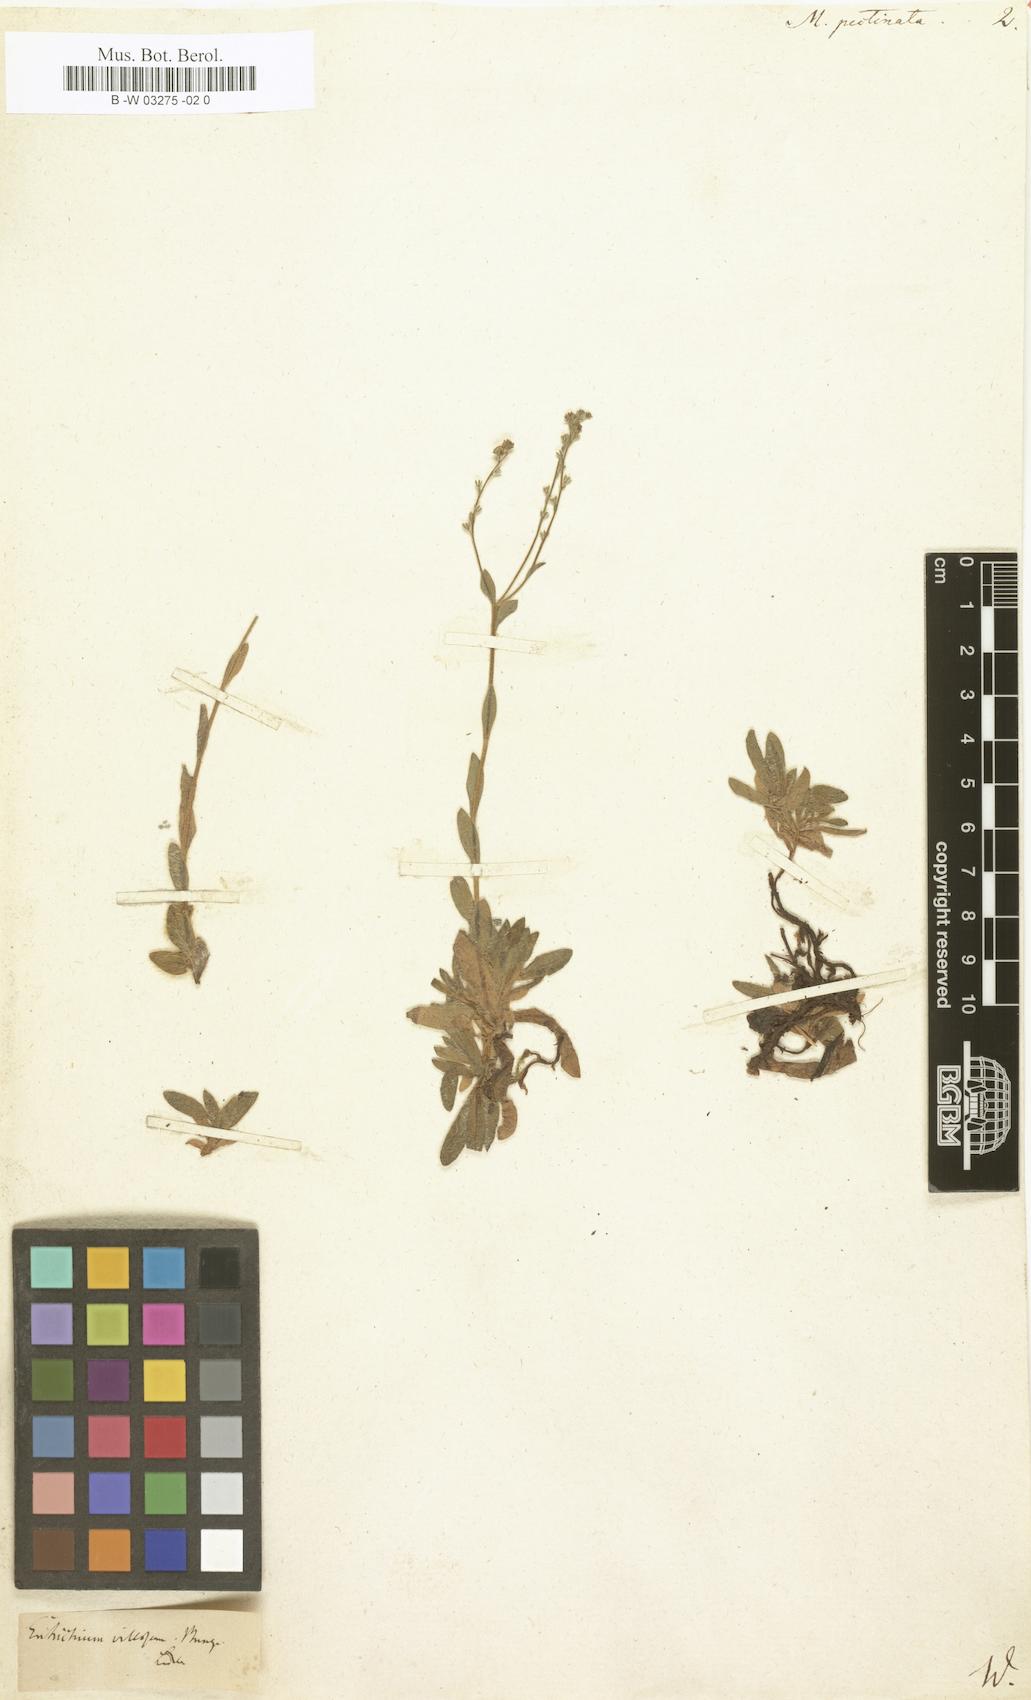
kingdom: Plantae
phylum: Tracheophyta
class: Magnoliopsida
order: Boraginales
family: Boraginaceae
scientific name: Boraginaceae
